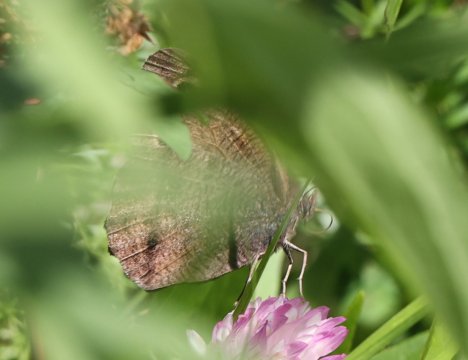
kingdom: Animalia
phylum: Arthropoda
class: Insecta
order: Lepidoptera
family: Nymphalidae
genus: Cercyonis
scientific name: Cercyonis pegala
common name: Common Wood-Nymph
